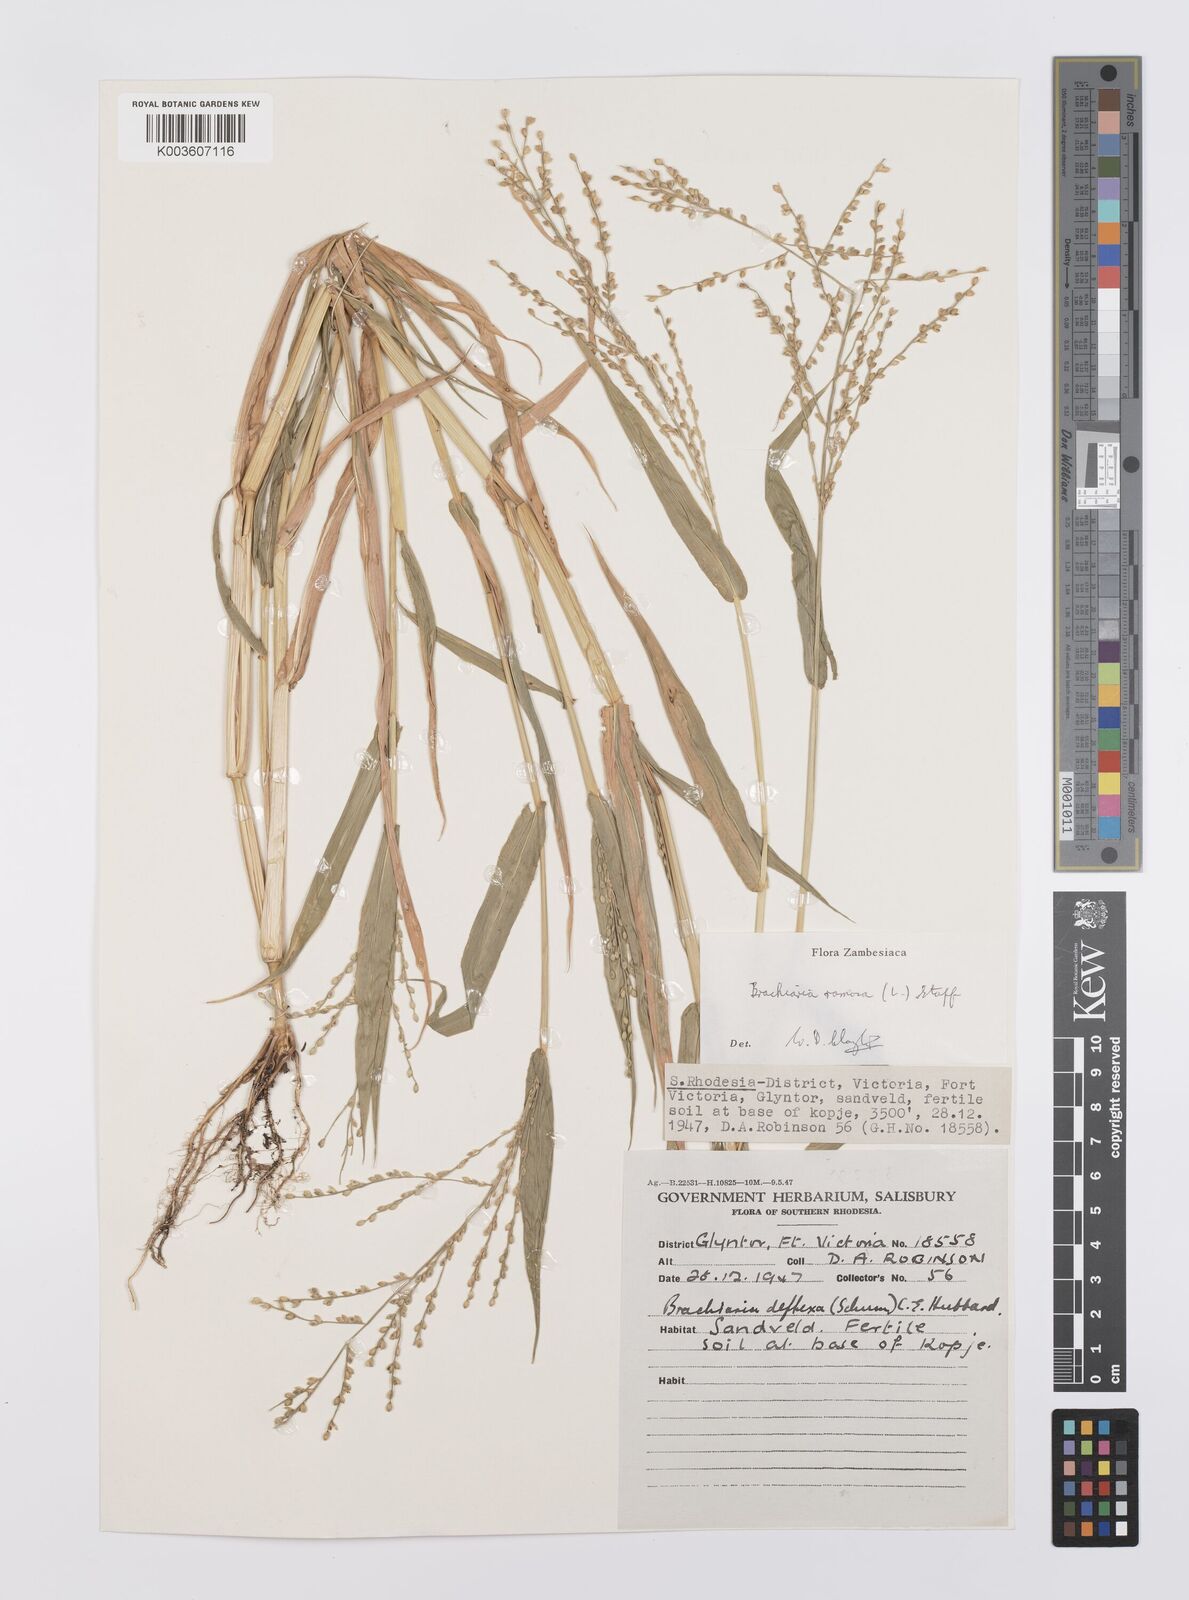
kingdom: Plantae
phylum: Tracheophyta
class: Liliopsida
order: Poales
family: Poaceae
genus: Urochloa
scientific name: Urochloa ramosa
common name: Browntop millet
